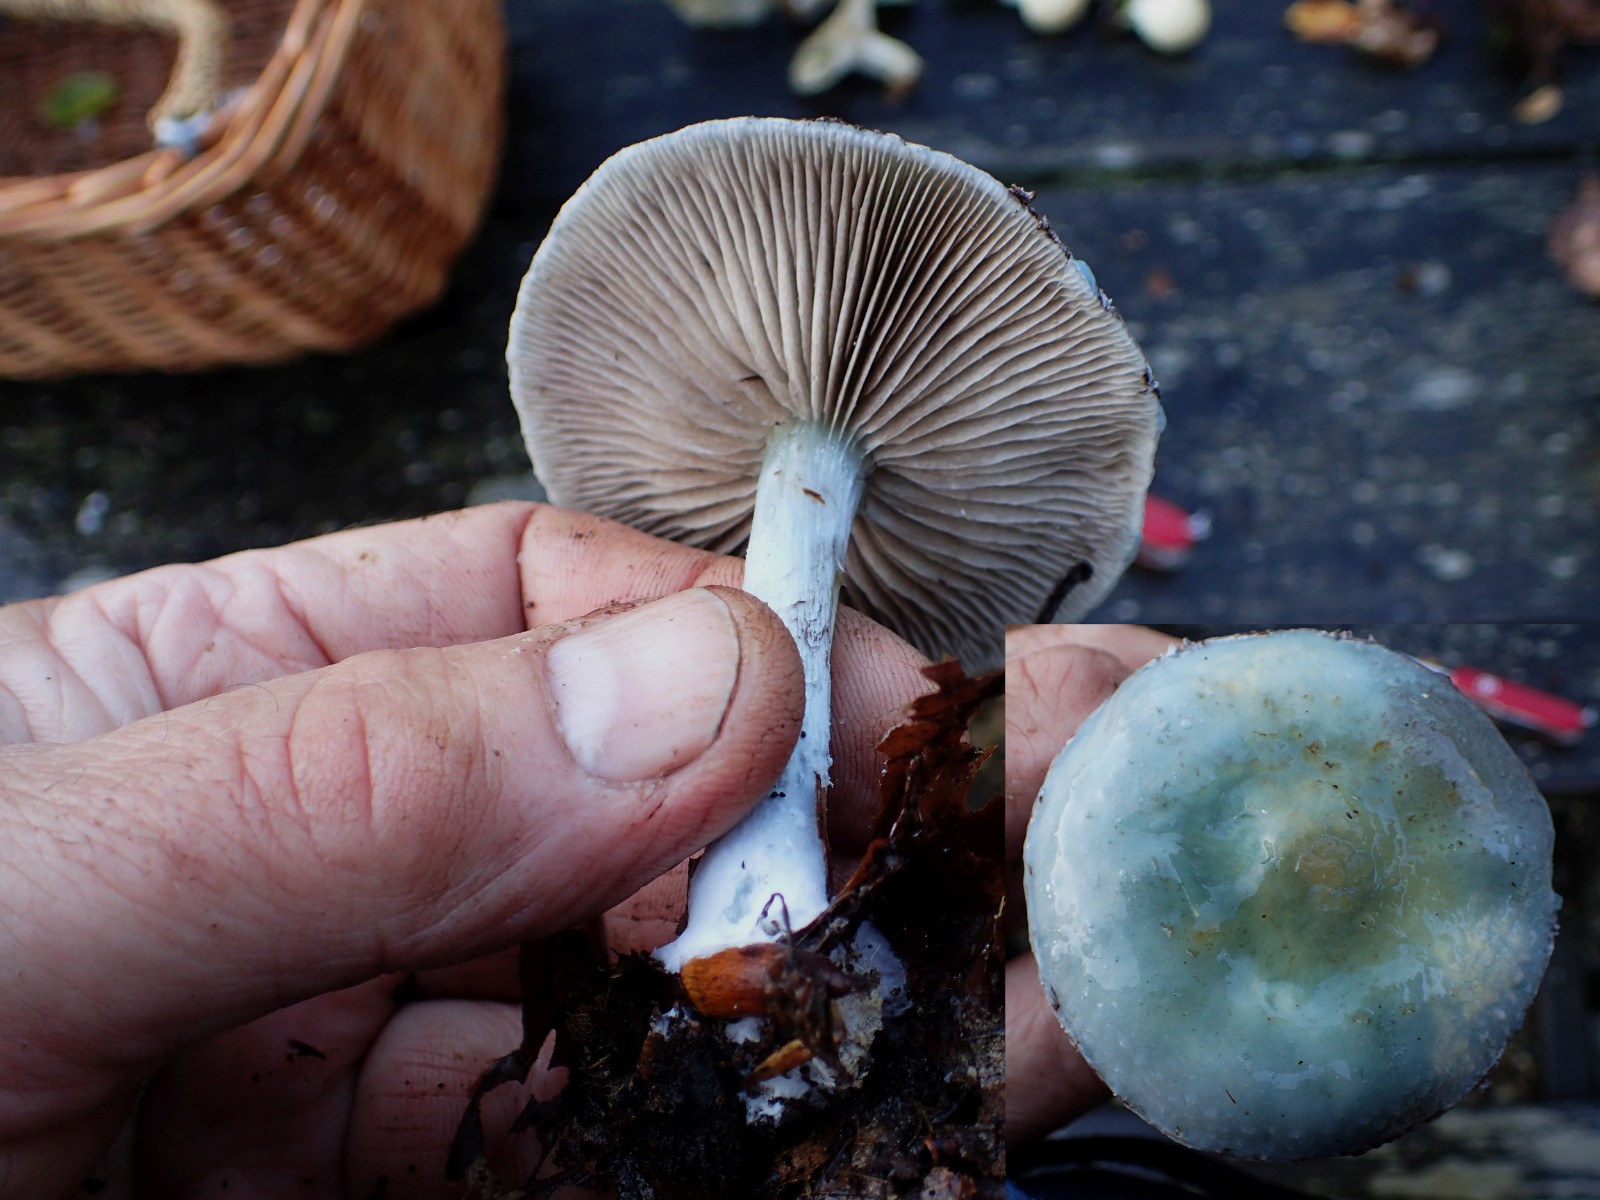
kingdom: Fungi
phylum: Basidiomycota
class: Agaricomycetes
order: Agaricales
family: Strophariaceae
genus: Stropharia
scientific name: Stropharia cyanea
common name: blågrøn bredblad
